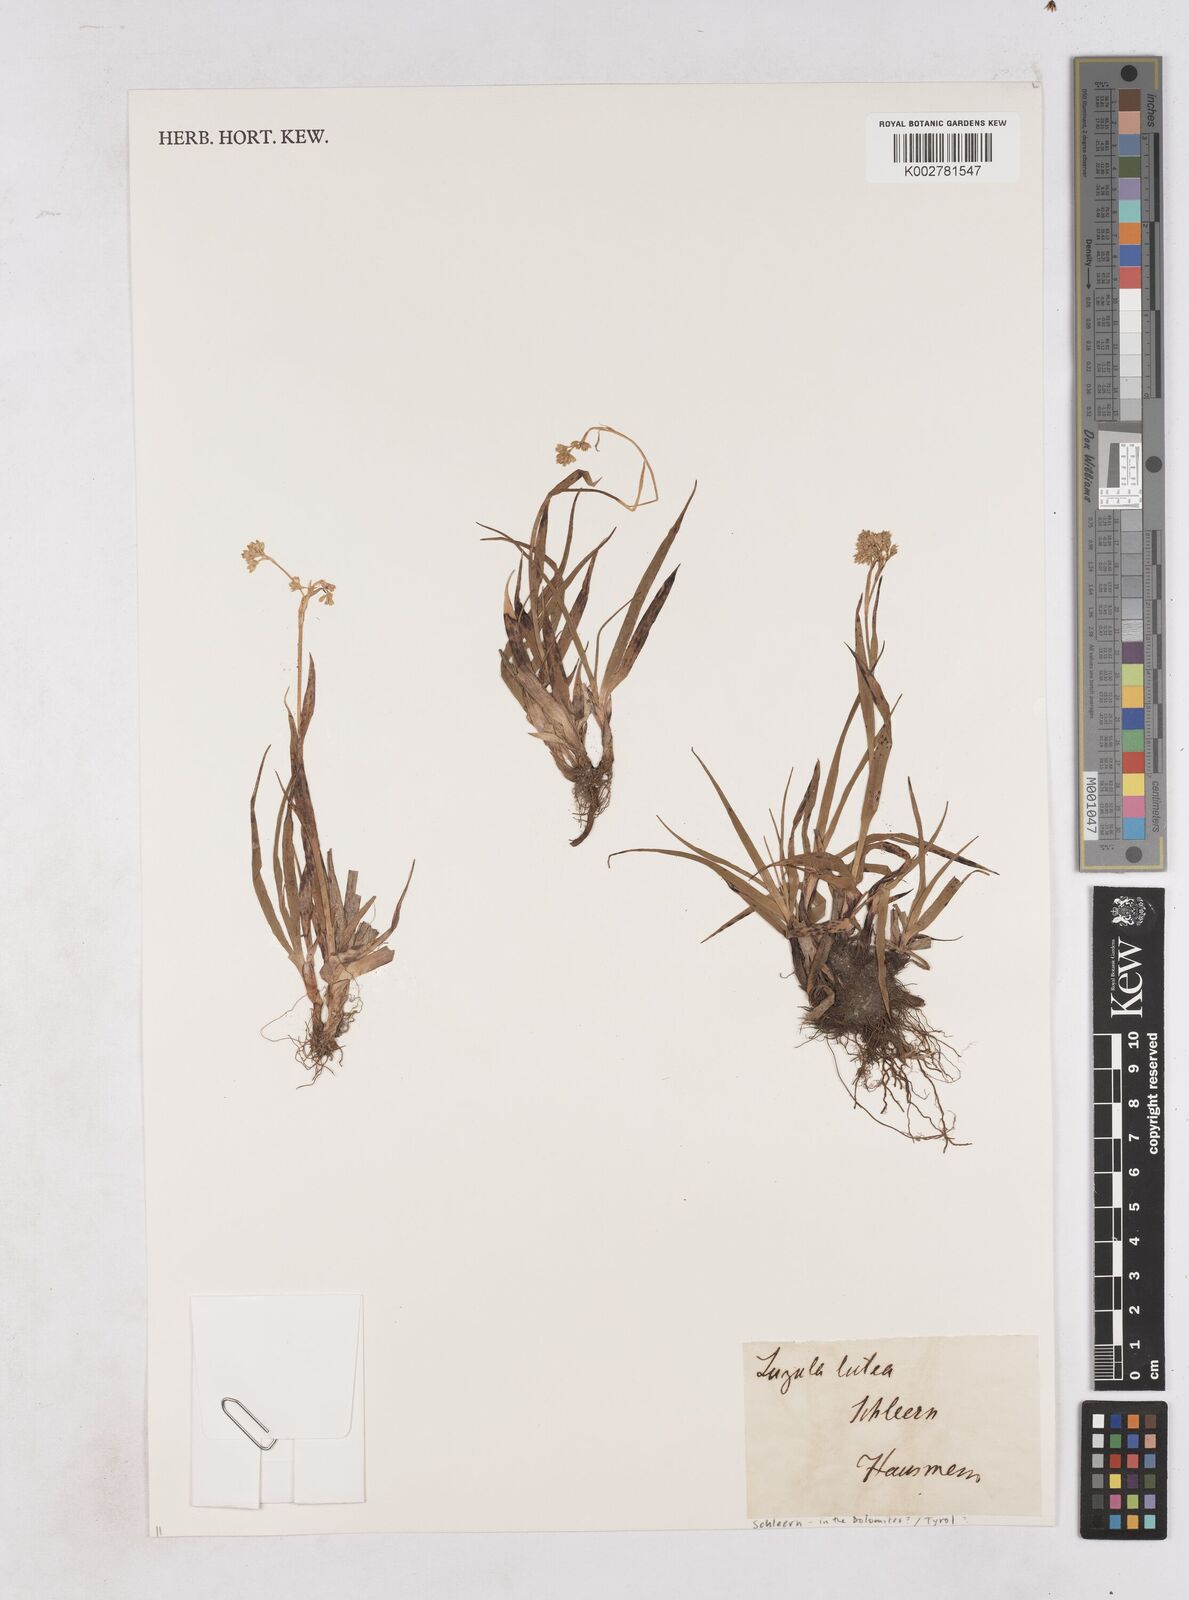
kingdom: Plantae
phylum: Tracheophyta
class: Liliopsida
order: Poales
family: Juncaceae
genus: Luzula
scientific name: Luzula lutea
